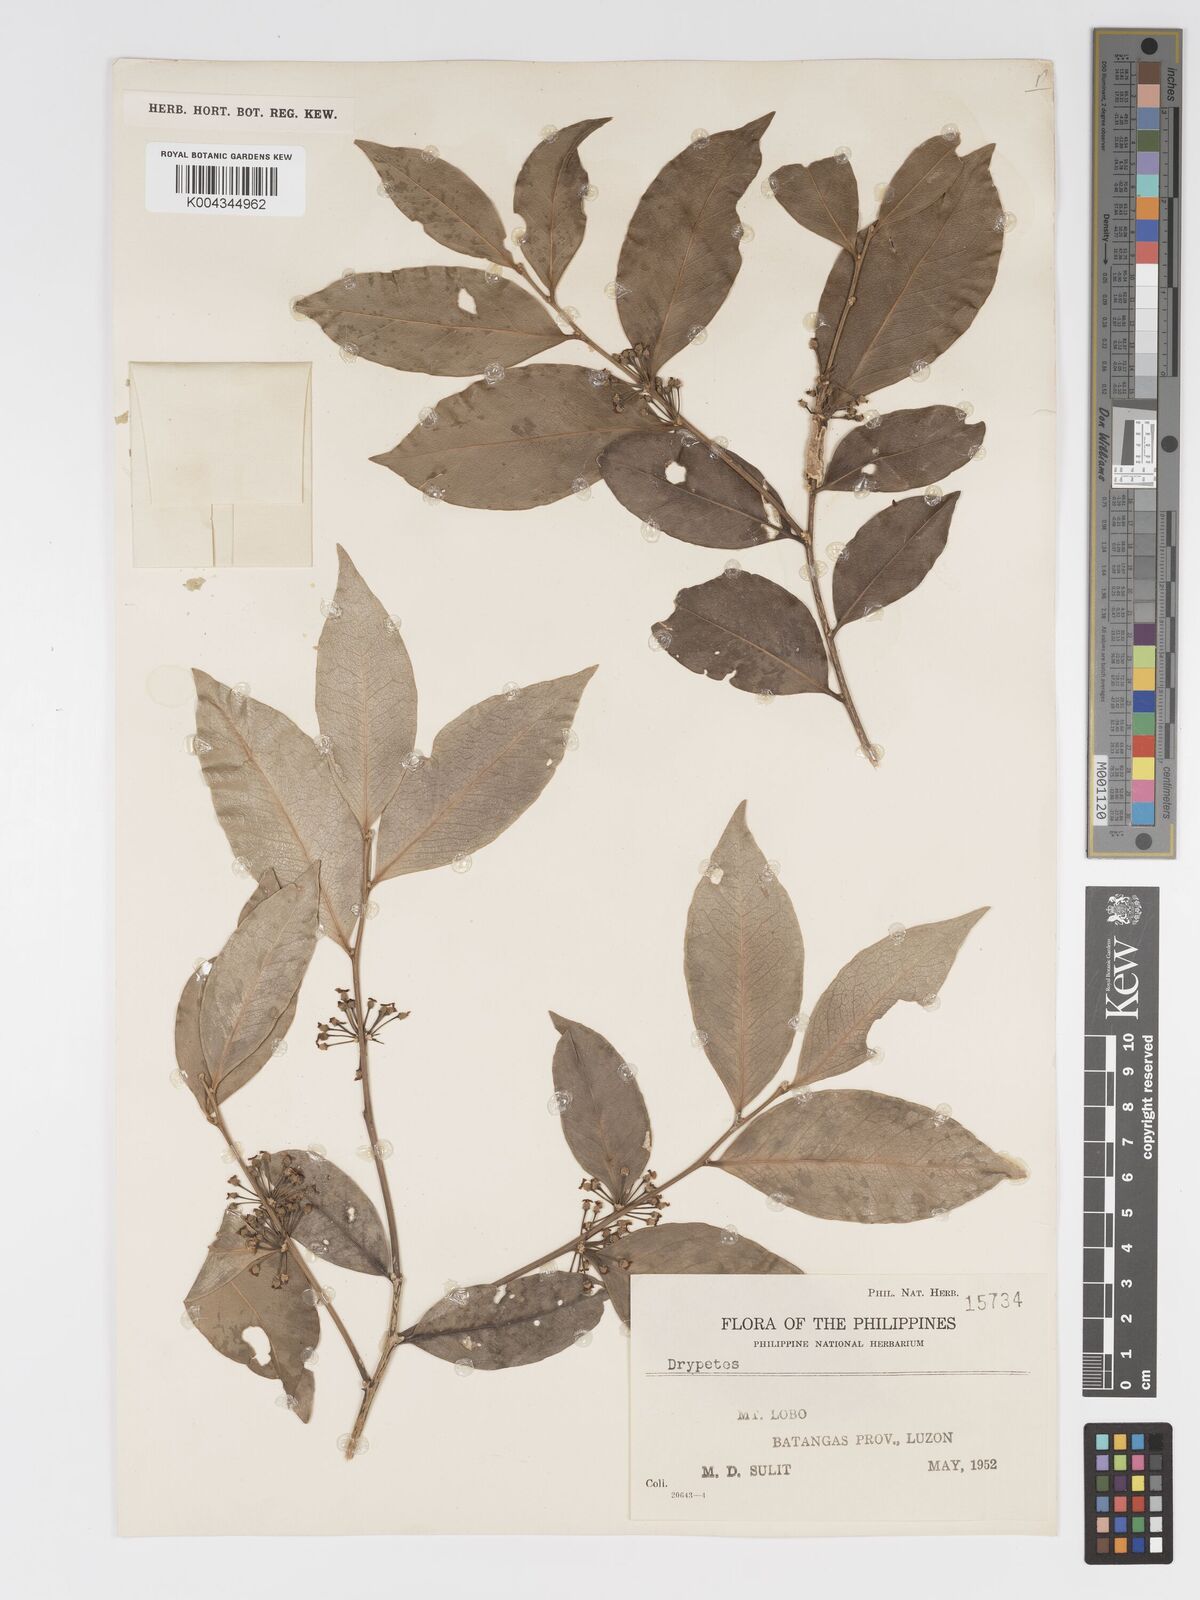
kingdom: Plantae
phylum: Tracheophyta
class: Magnoliopsida
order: Malpighiales
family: Putranjivaceae
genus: Drypetes
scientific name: Drypetes littoralis
